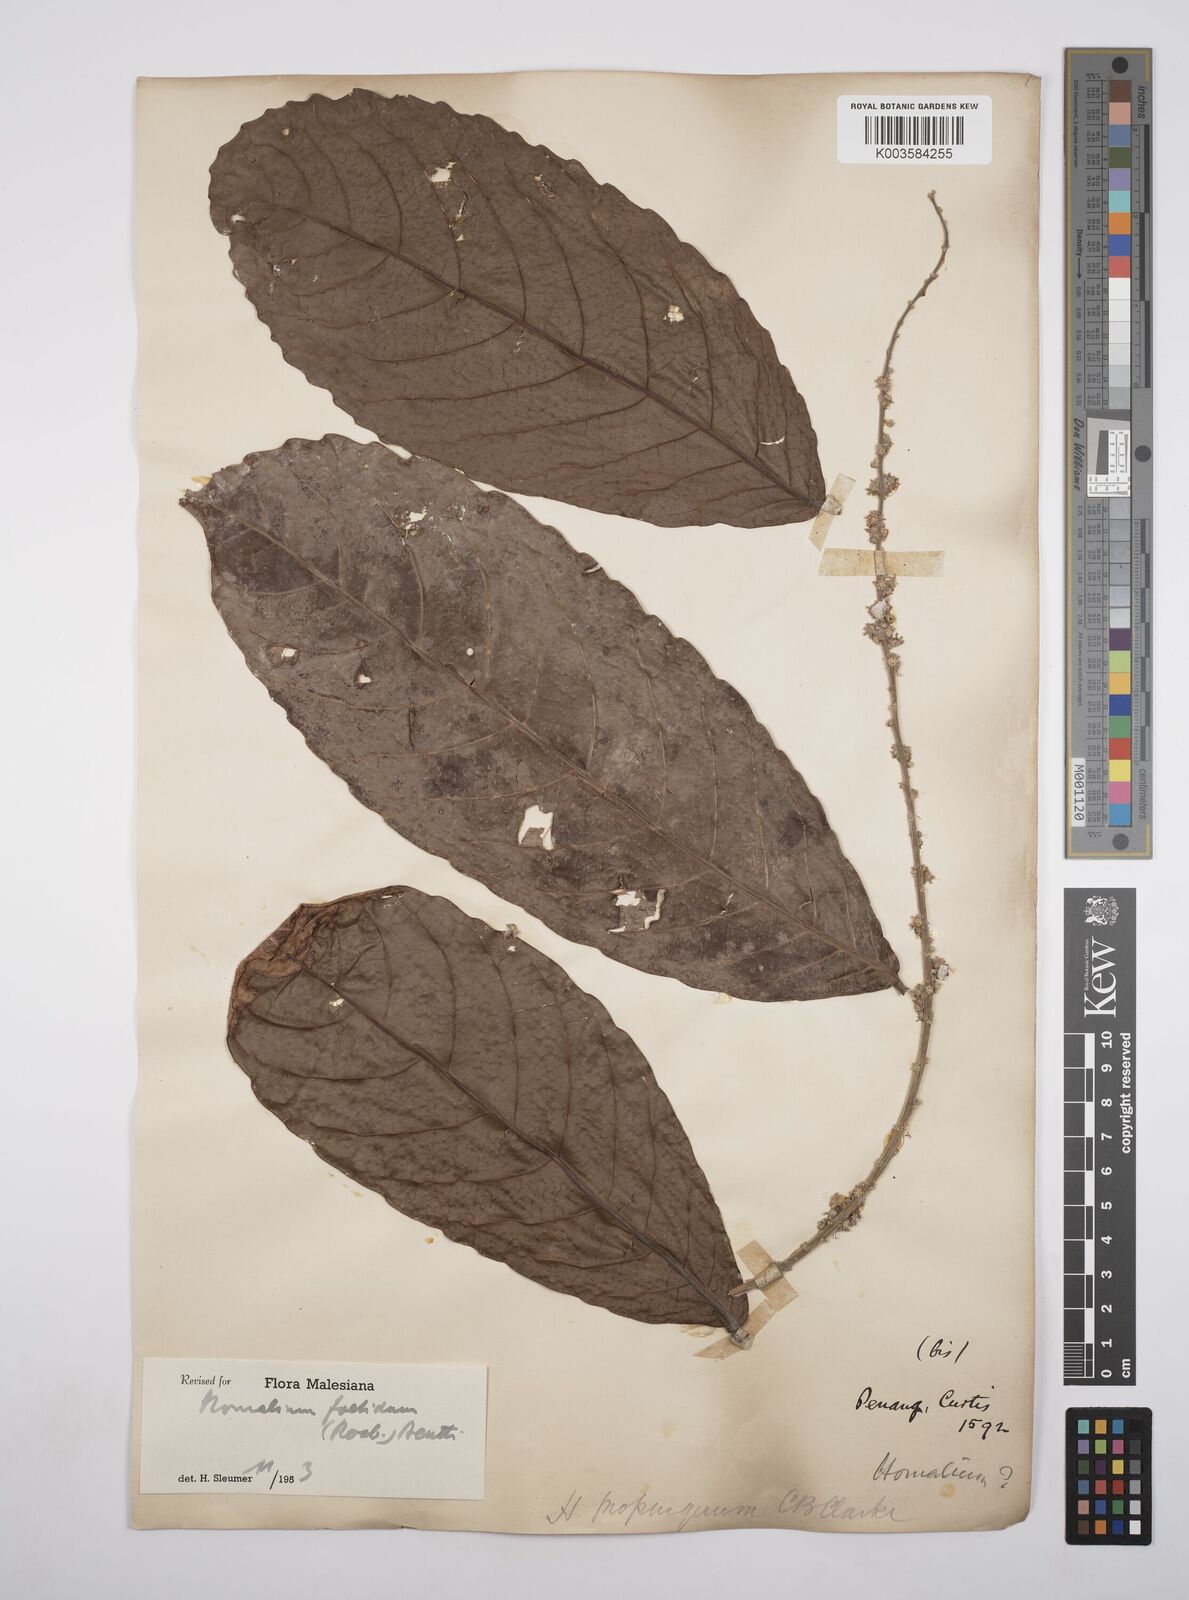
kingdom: Plantae
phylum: Tracheophyta
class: Magnoliopsida
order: Malpighiales
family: Salicaceae
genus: Homalium
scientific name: Homalium foetidum
